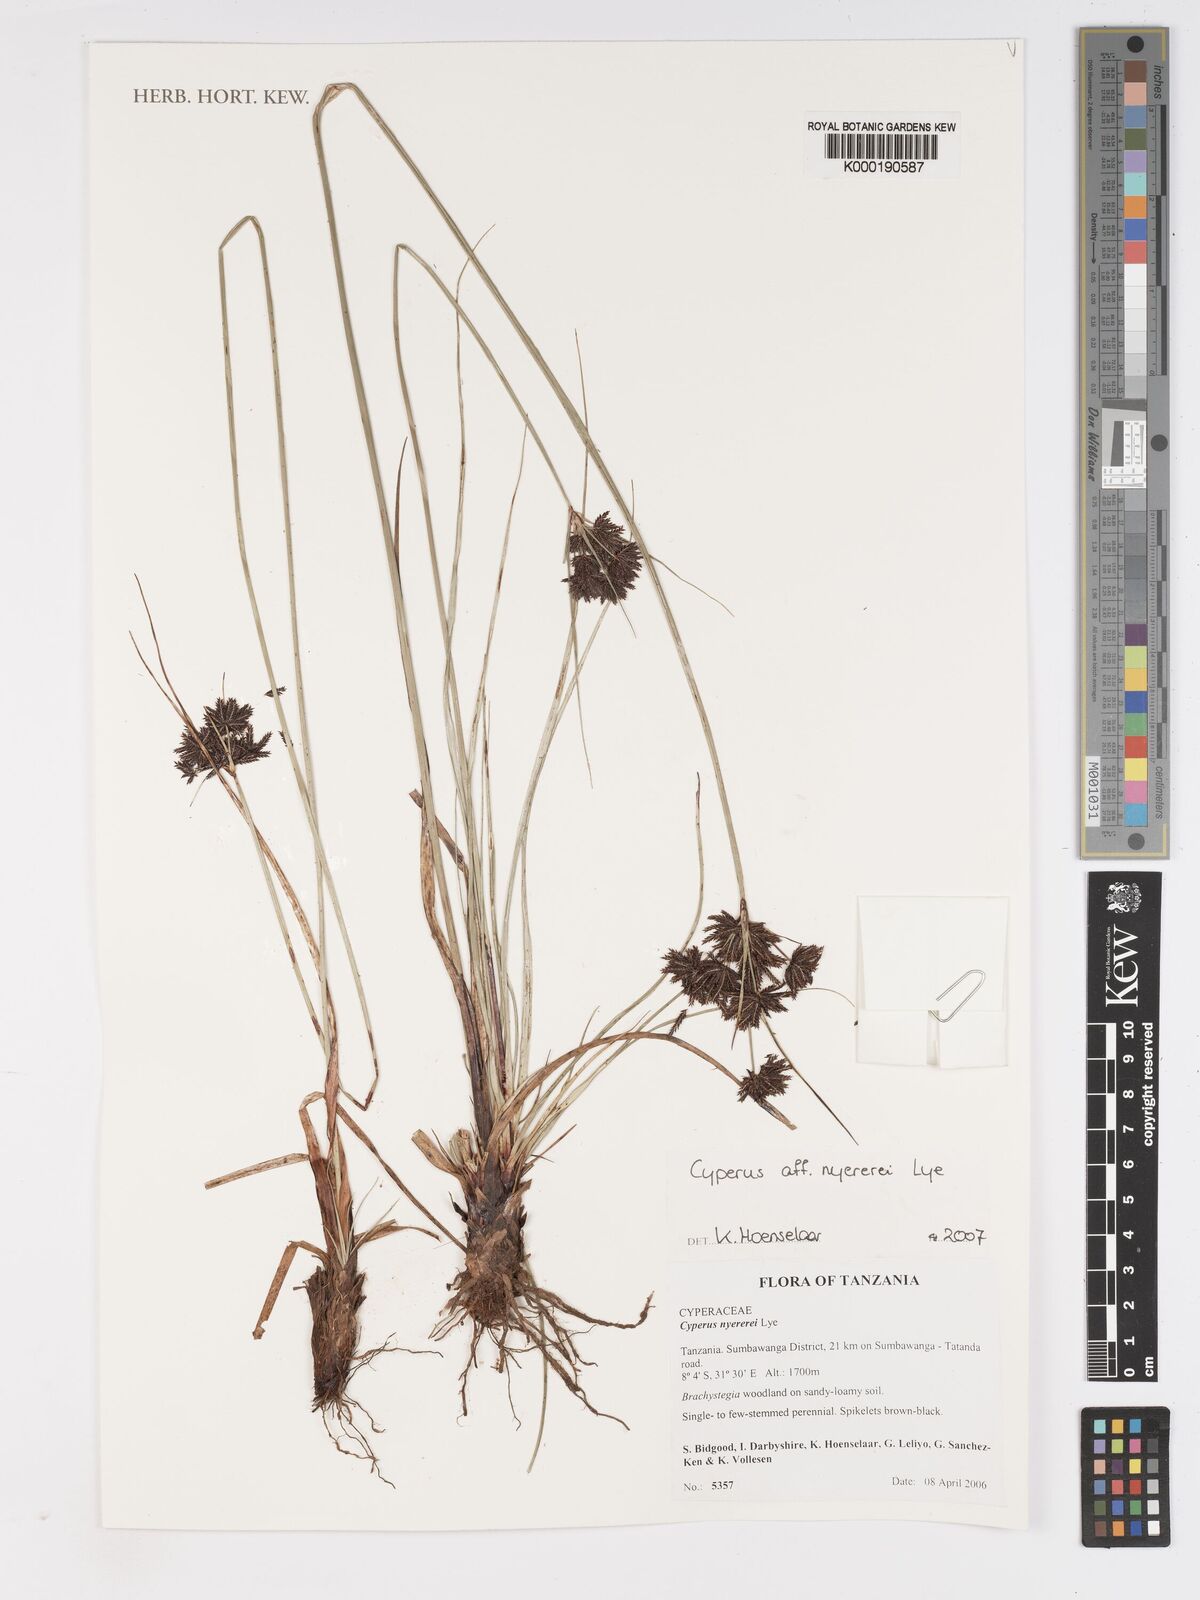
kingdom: Plantae
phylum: Tracheophyta
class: Liliopsida
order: Poales
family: Cyperaceae
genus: Cyperus
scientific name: Cyperus nyererei
